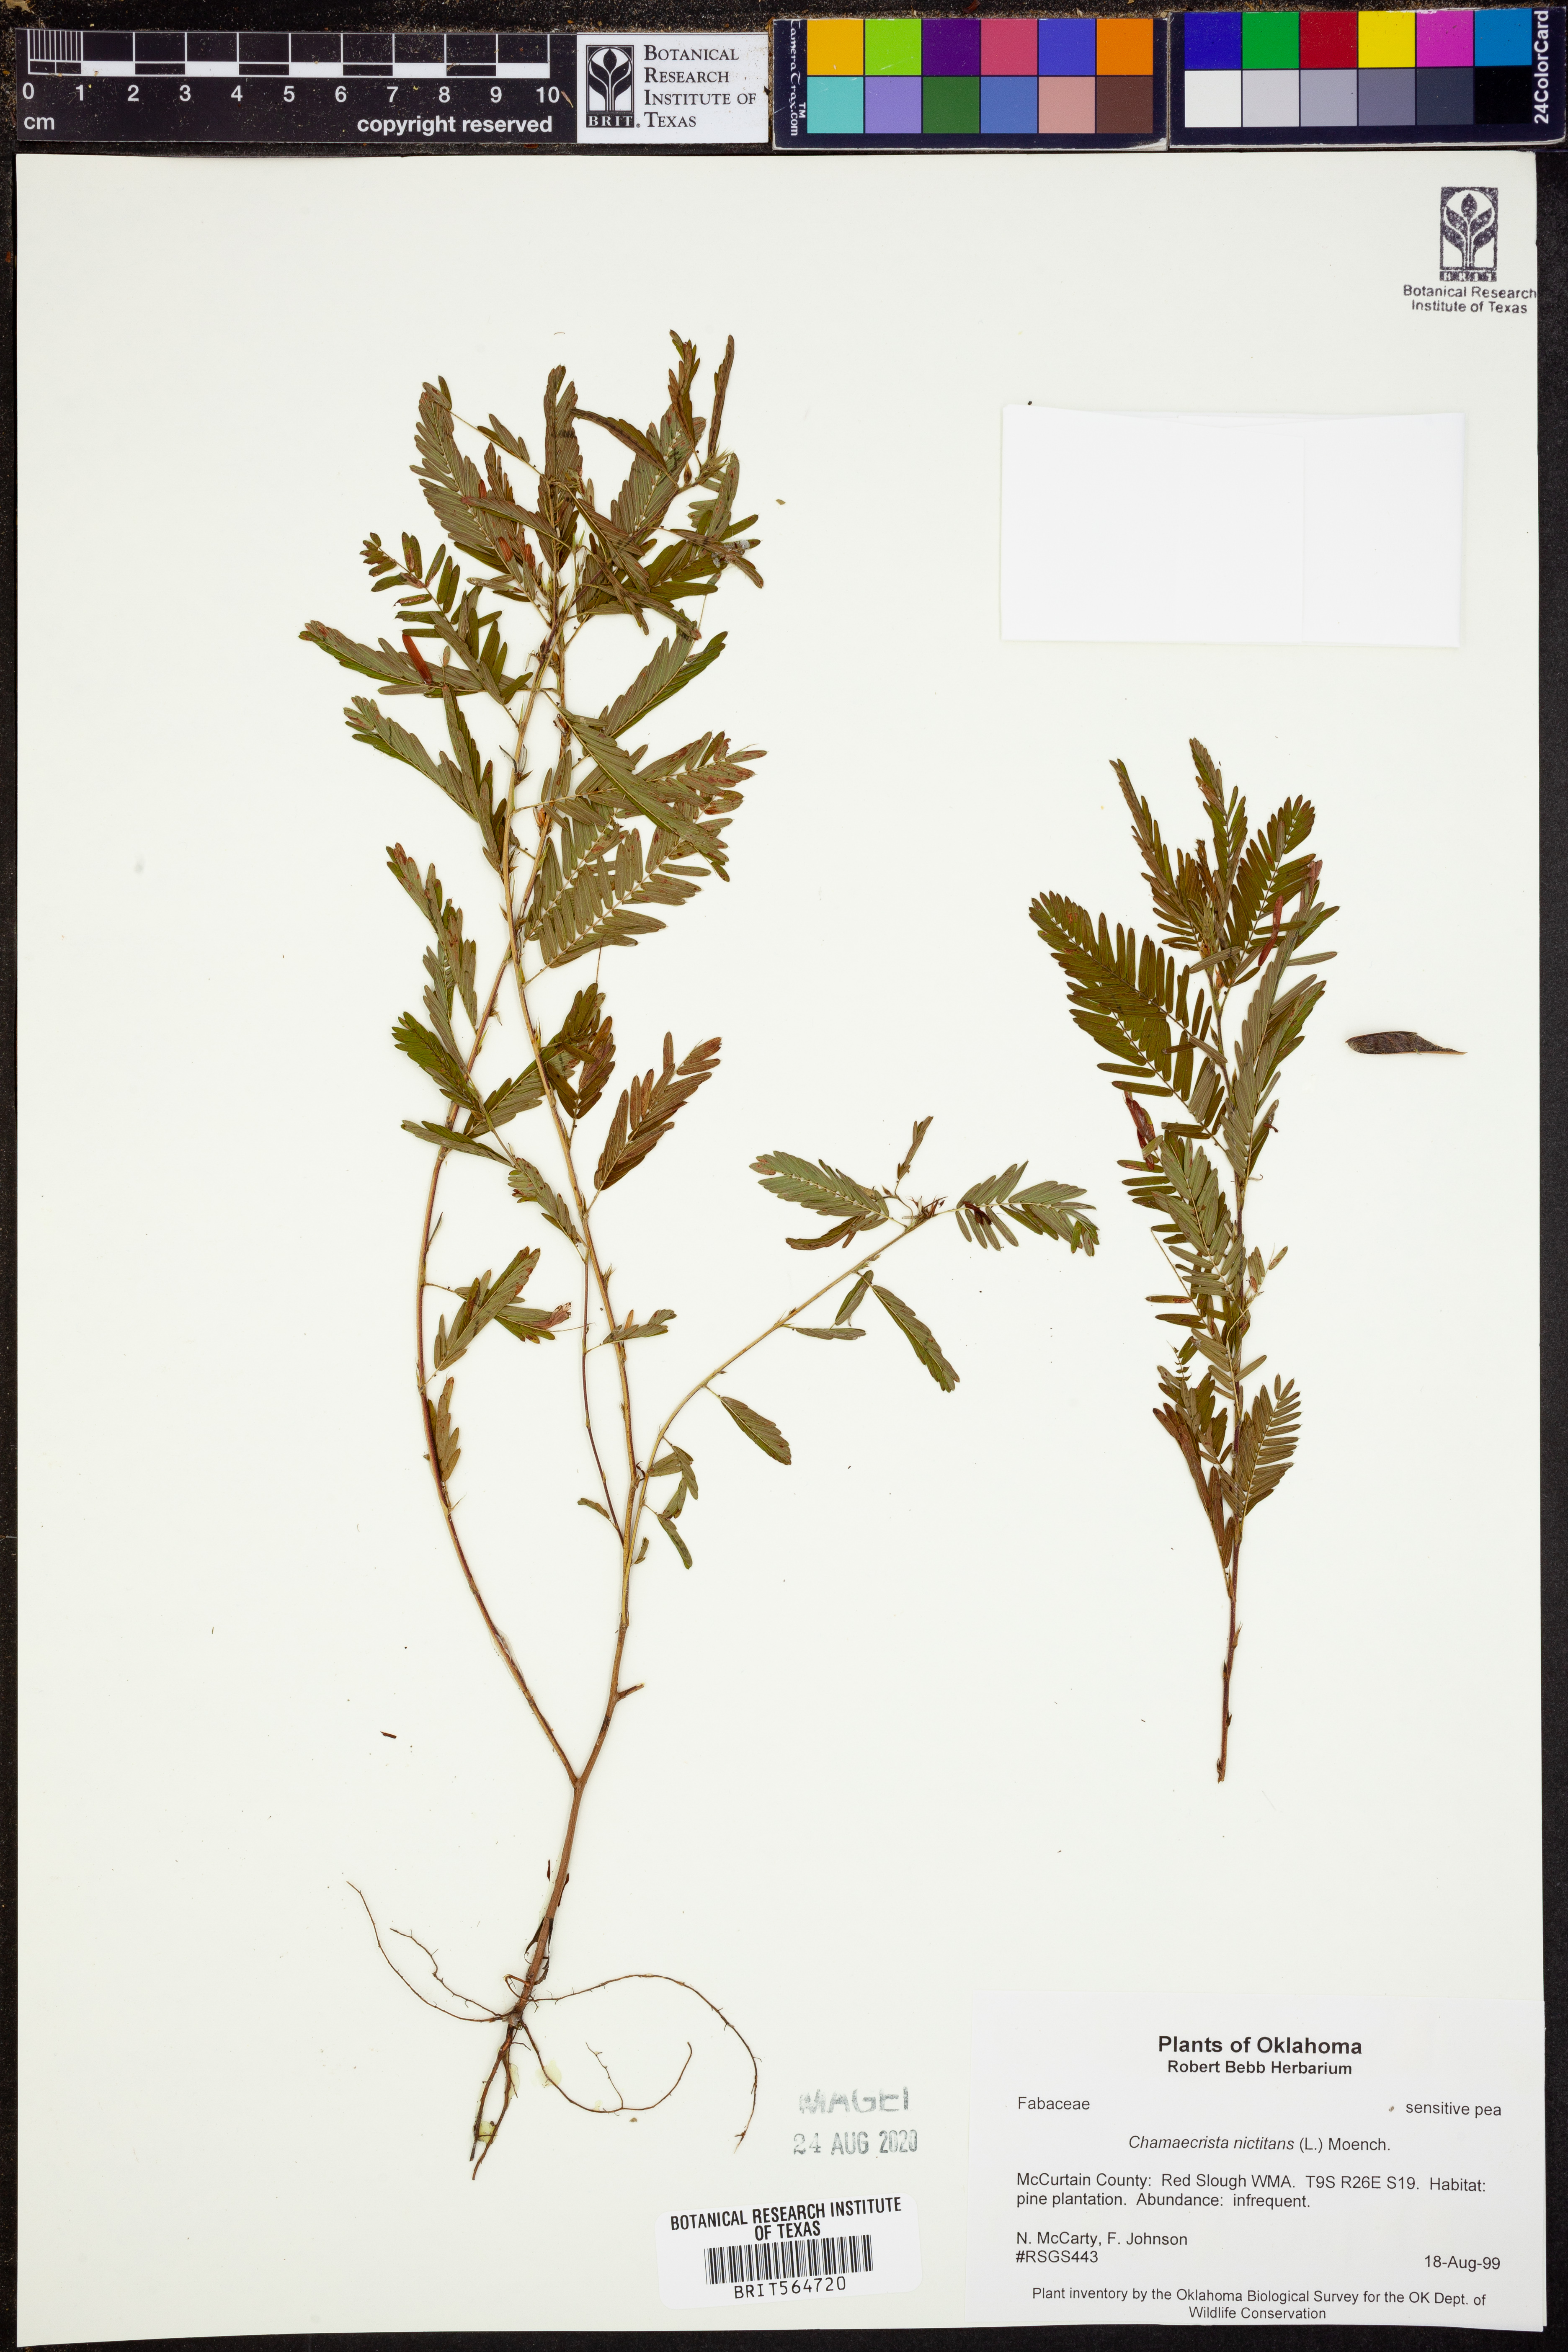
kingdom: Plantae
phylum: Tracheophyta
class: Magnoliopsida
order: Fabales
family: Fabaceae
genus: Chamaecrista
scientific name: Chamaecrista nictitans
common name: Sensitive cassia
